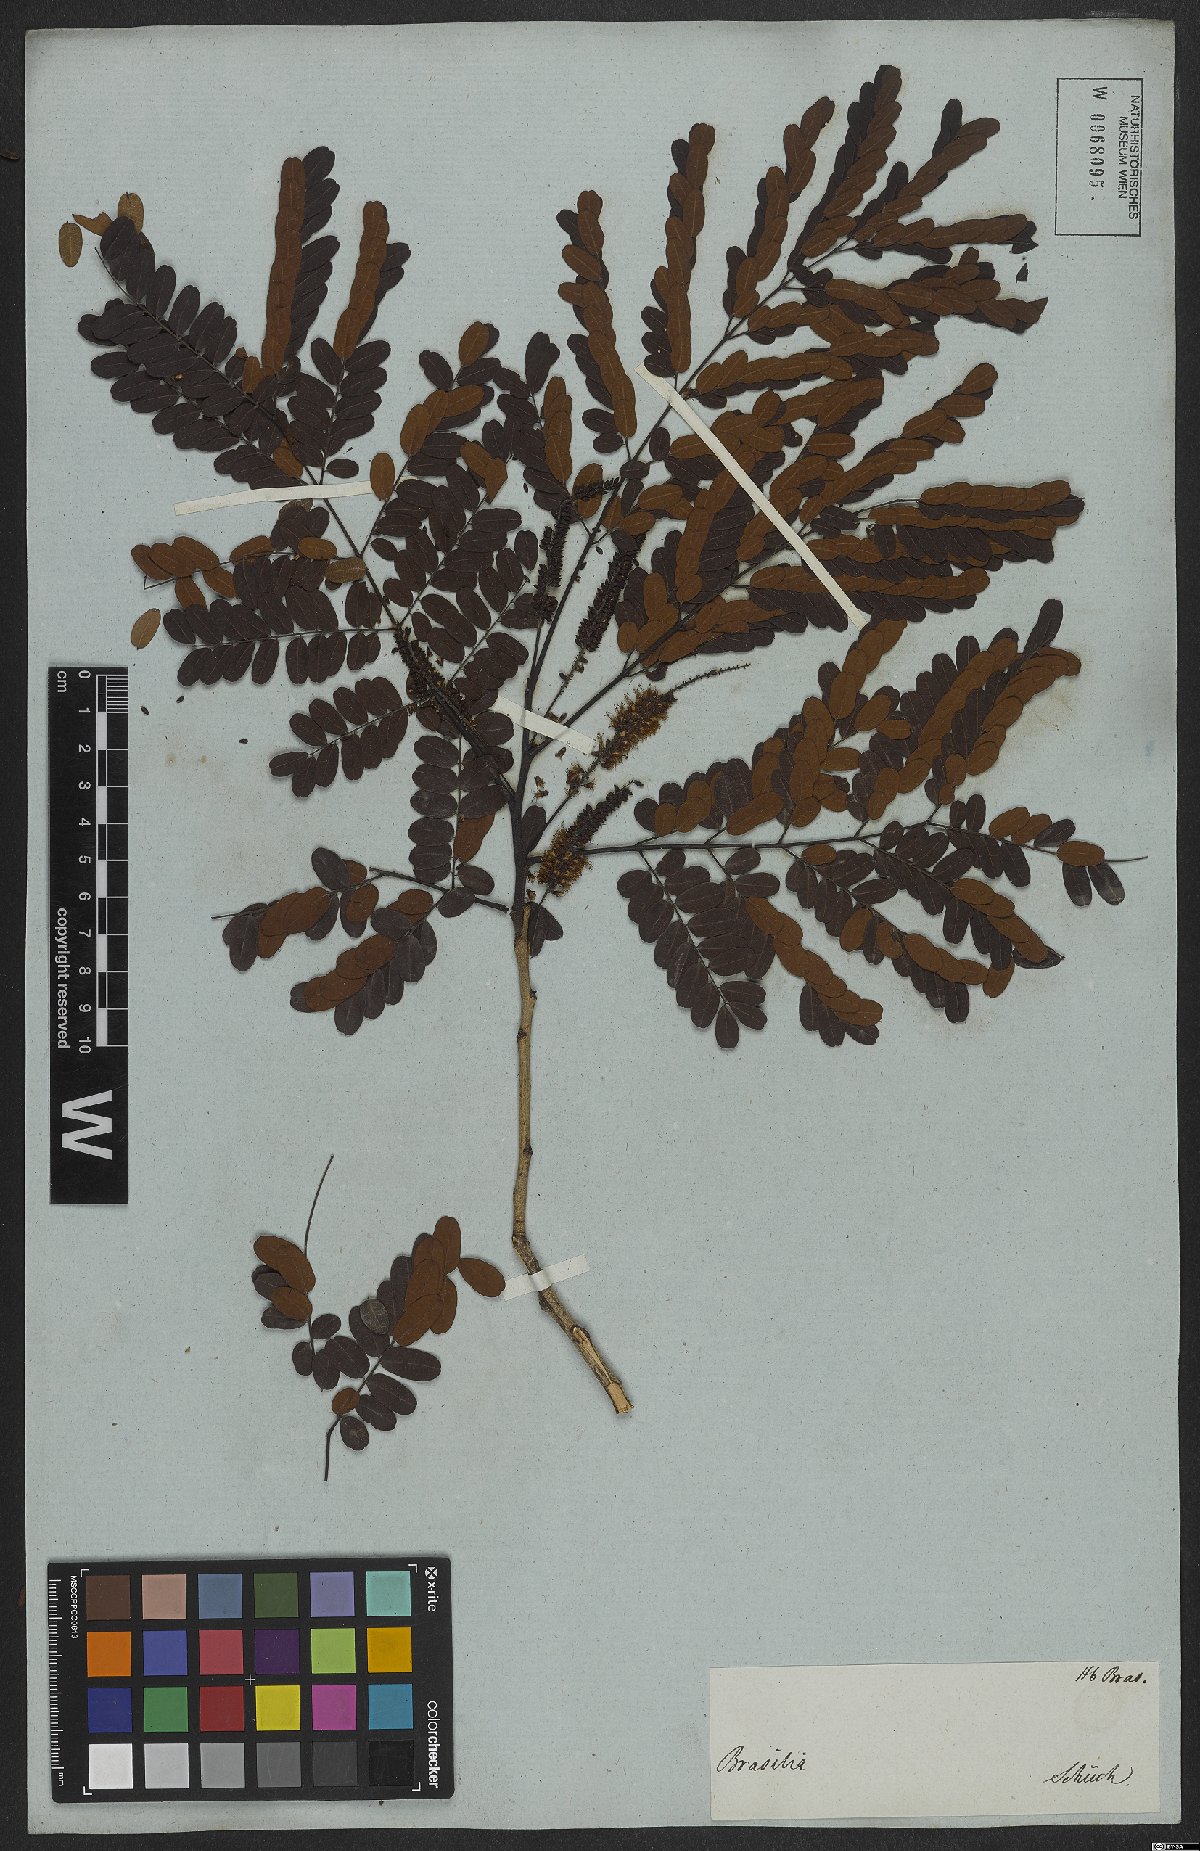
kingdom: Plantae
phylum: Tracheophyta
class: Magnoliopsida
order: Fabales
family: Fabaceae
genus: Plathymenia
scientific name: Plathymenia reticulata
